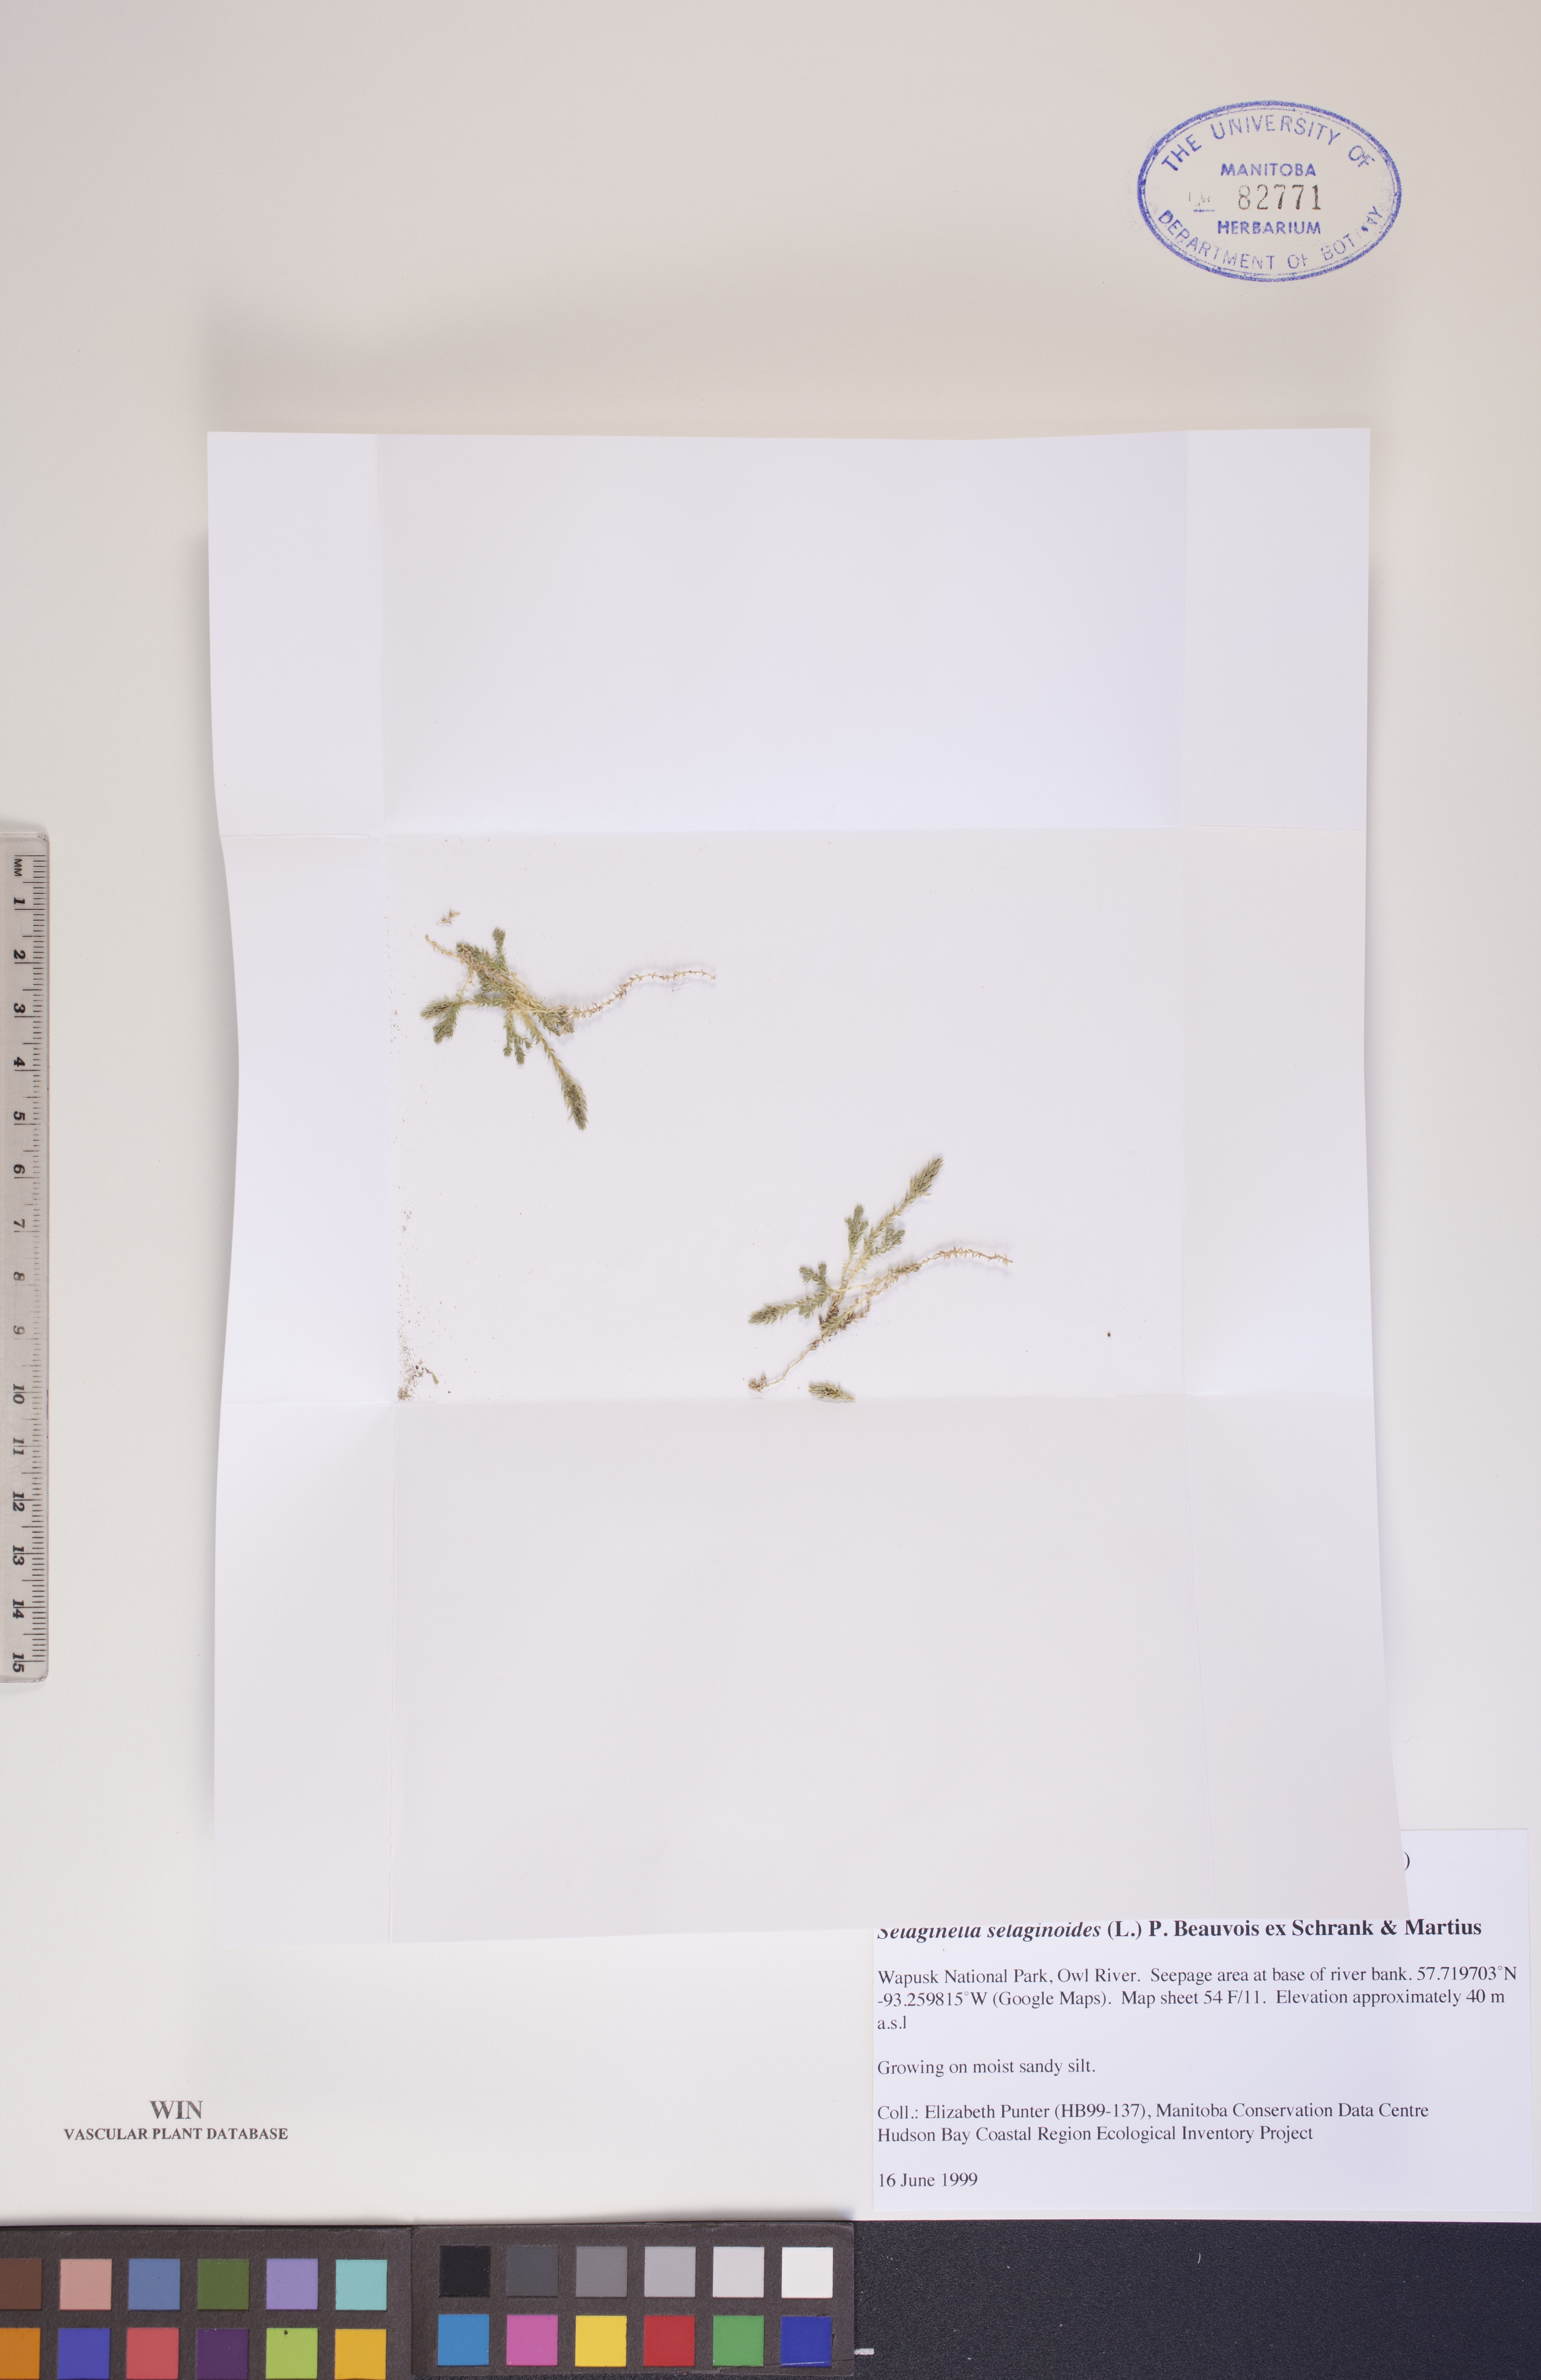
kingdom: Plantae
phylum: Tracheophyta
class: Lycopodiopsida
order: Selaginellales
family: Selaginellaceae
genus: Selaginella
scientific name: Selaginella selaginoides
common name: Prickly mountain-moss
